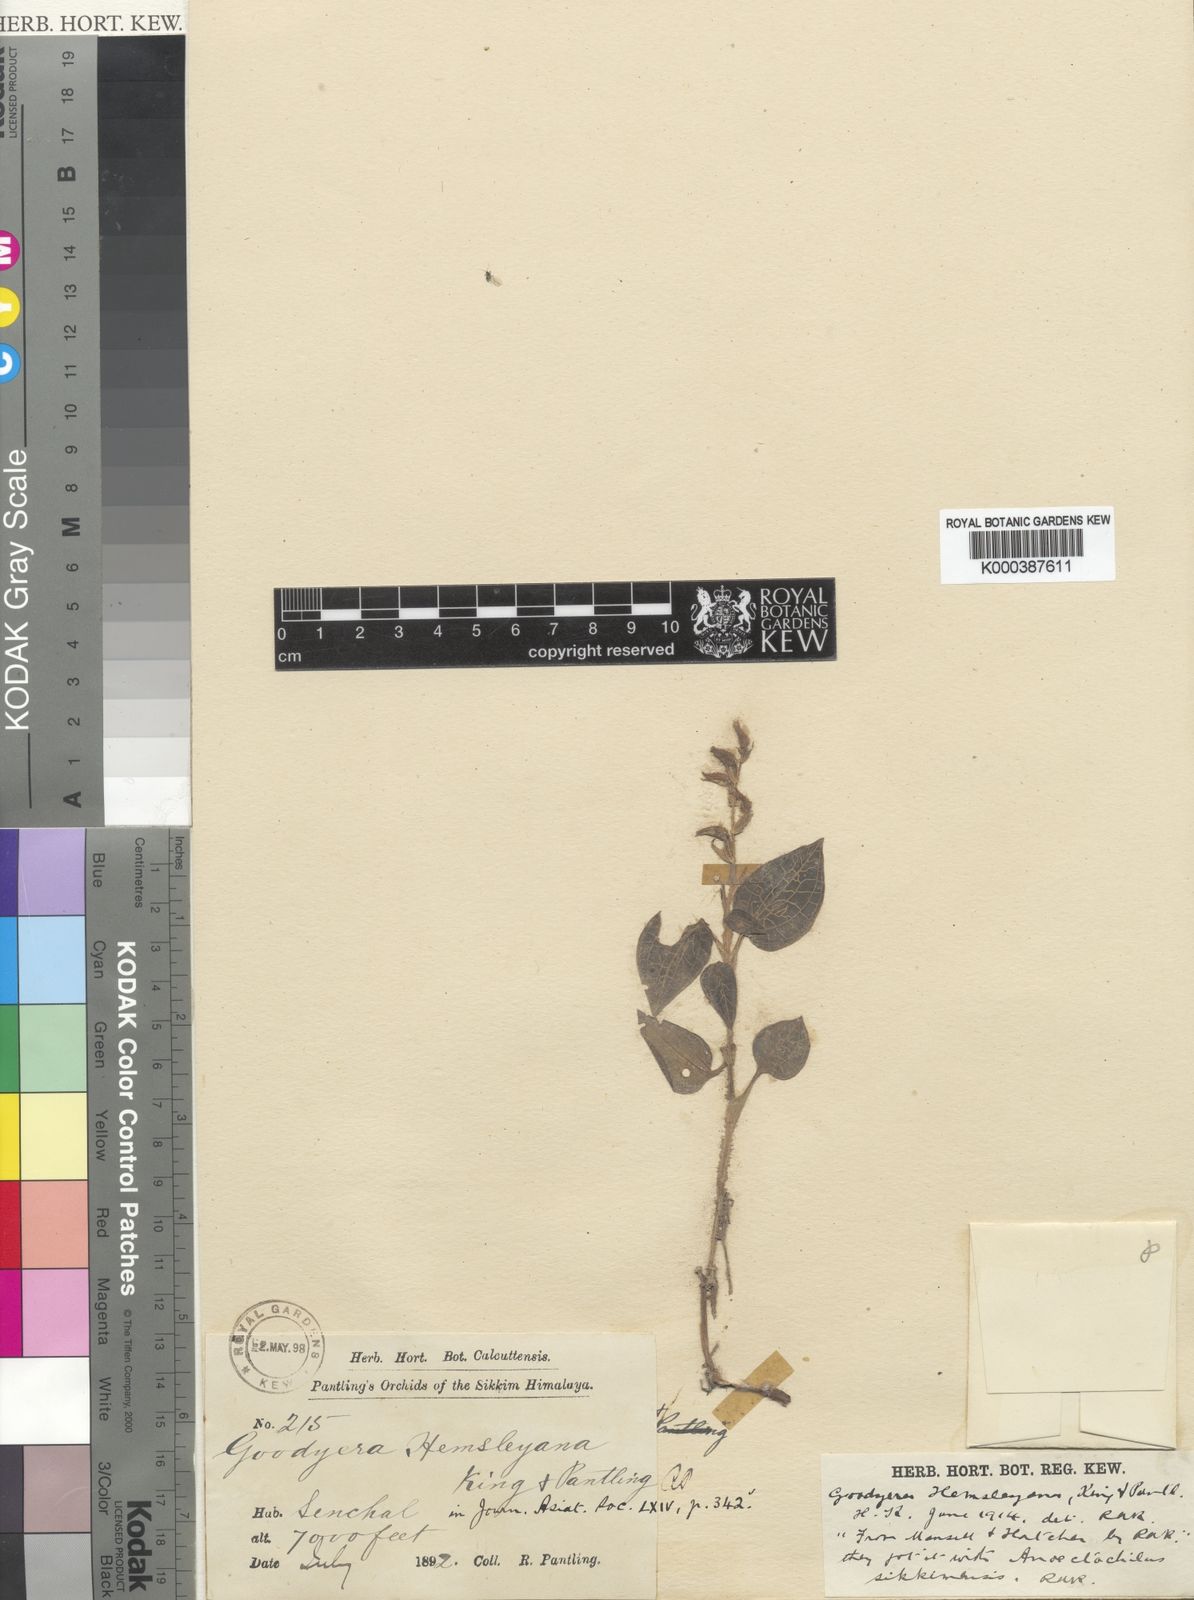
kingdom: Plantae
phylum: Tracheophyta
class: Liliopsida
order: Asparagales
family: Orchidaceae
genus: Goodyera
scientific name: Goodyera hemsleyana
